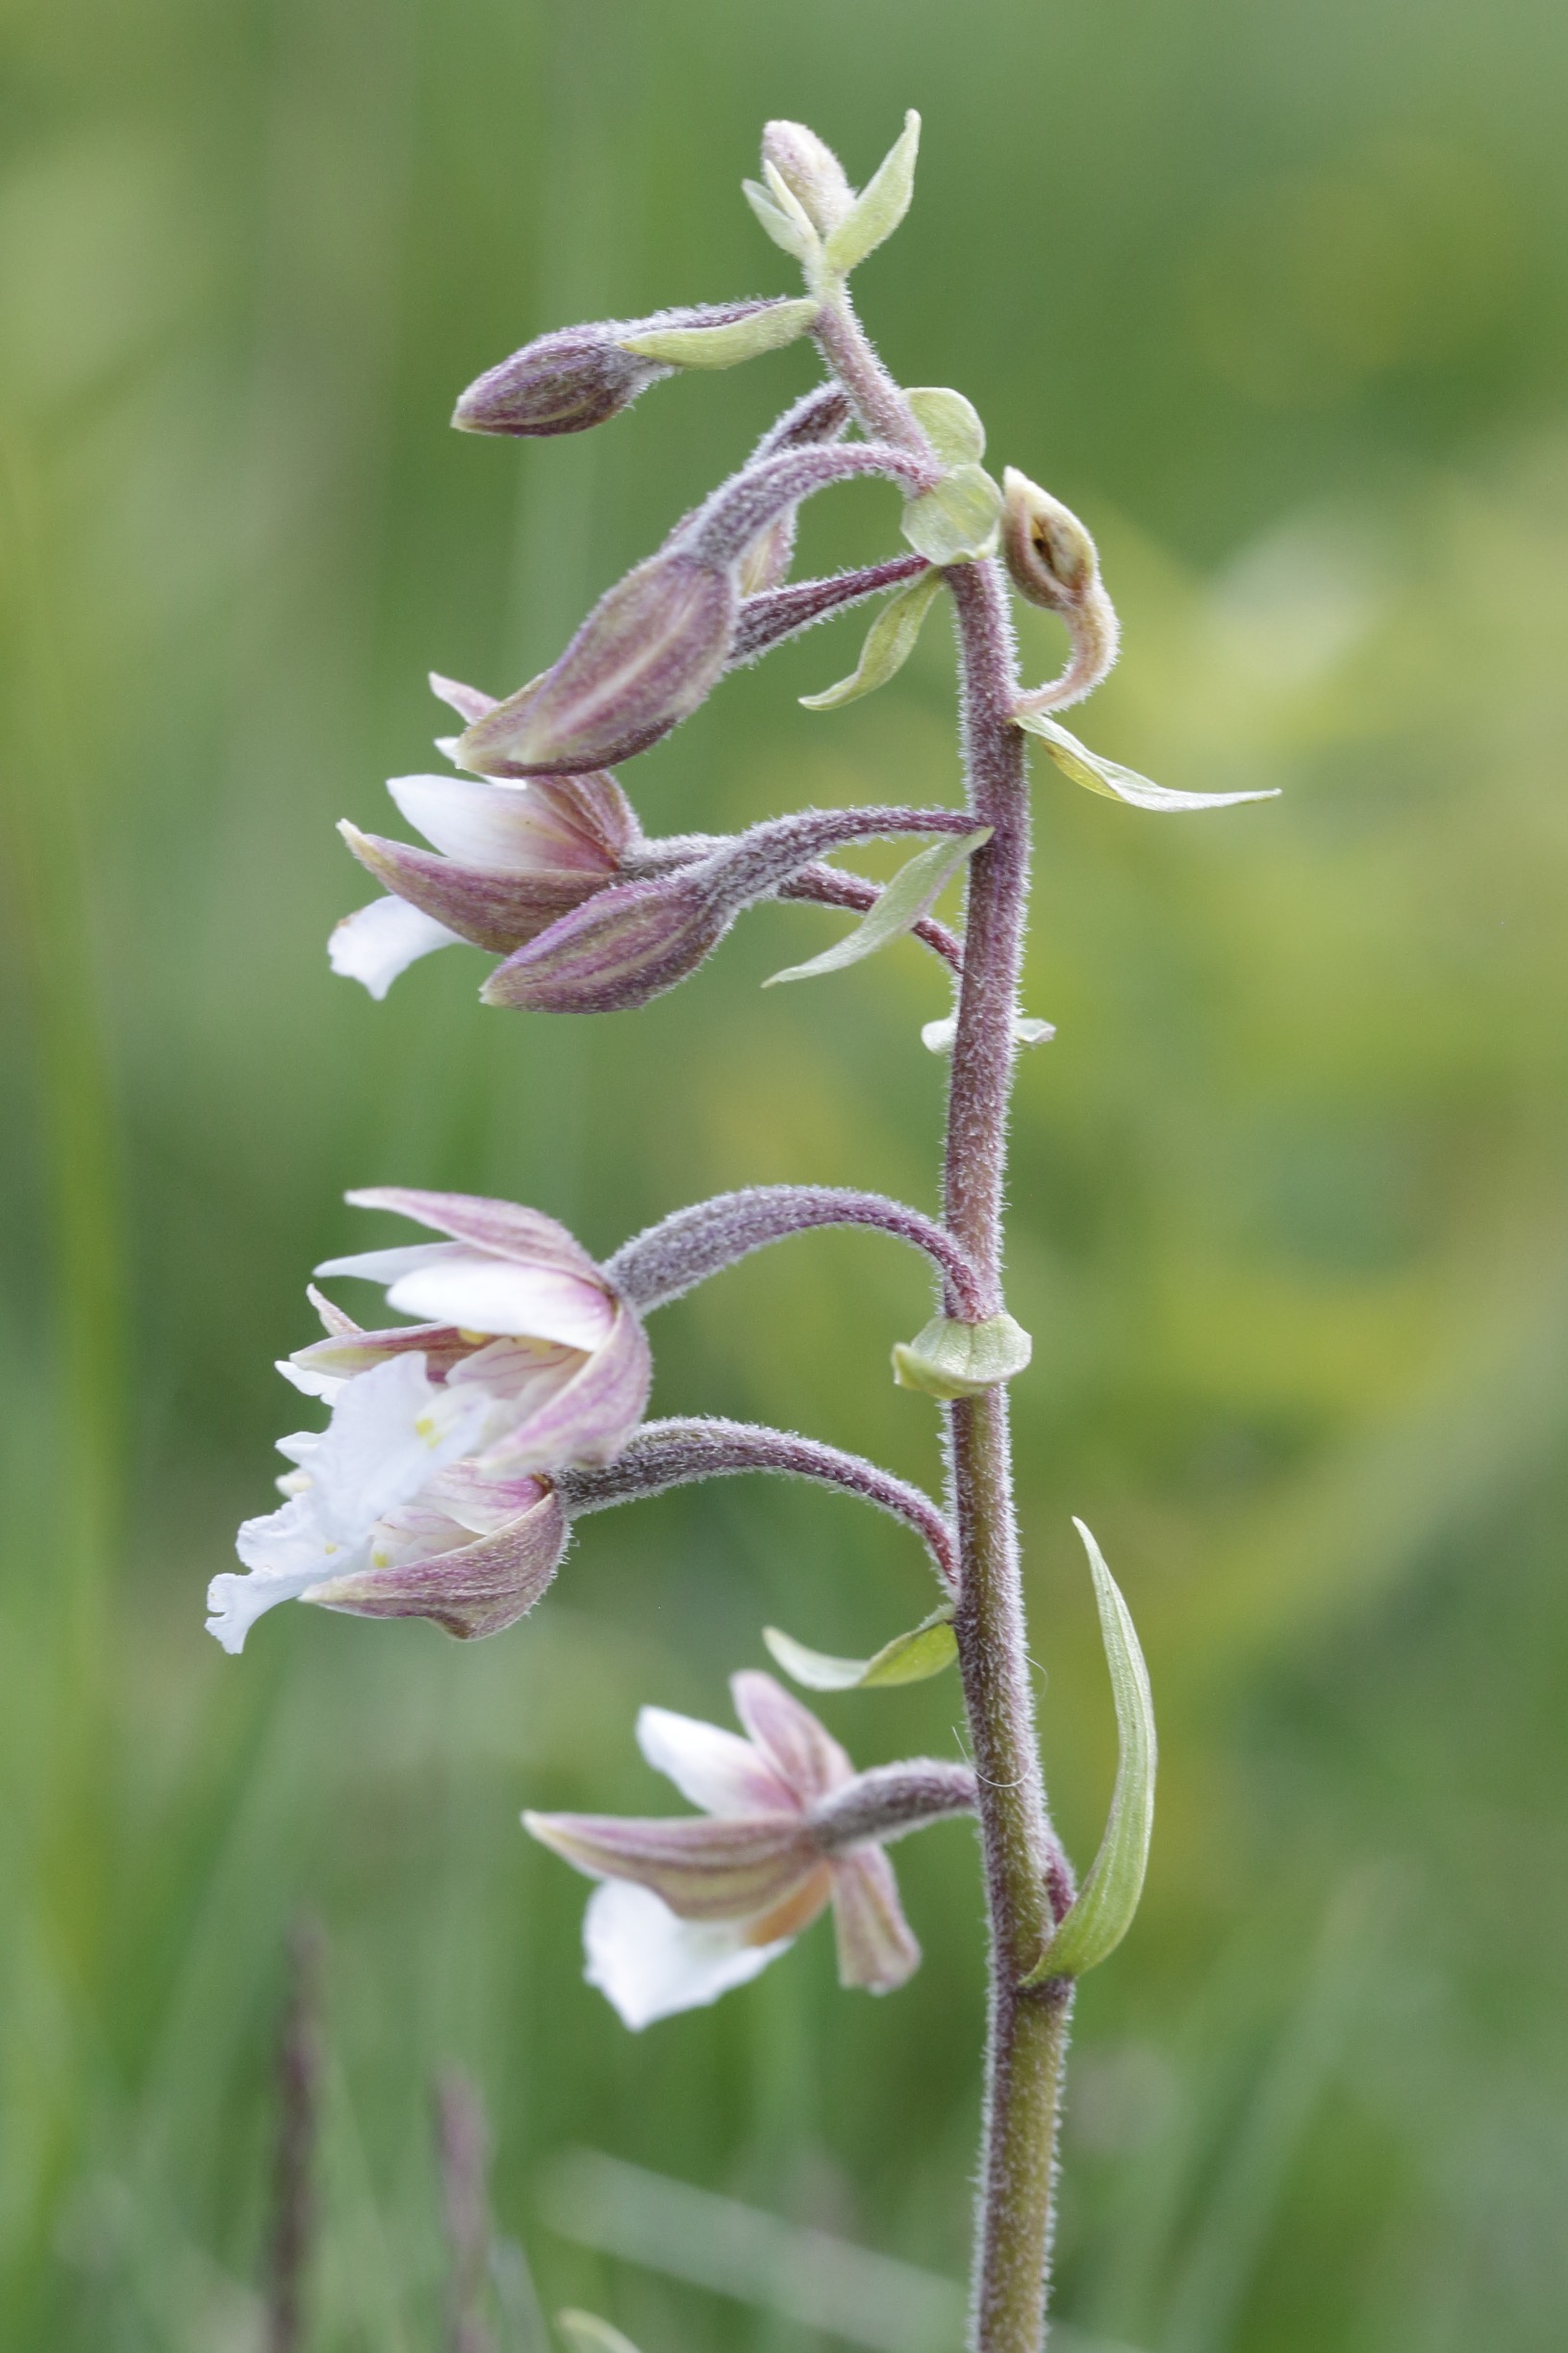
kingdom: Plantae
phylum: Tracheophyta
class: Liliopsida
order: Asparagales
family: Orchidaceae
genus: Epipactis
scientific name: Epipactis palustris
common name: Sump-hullæbe
